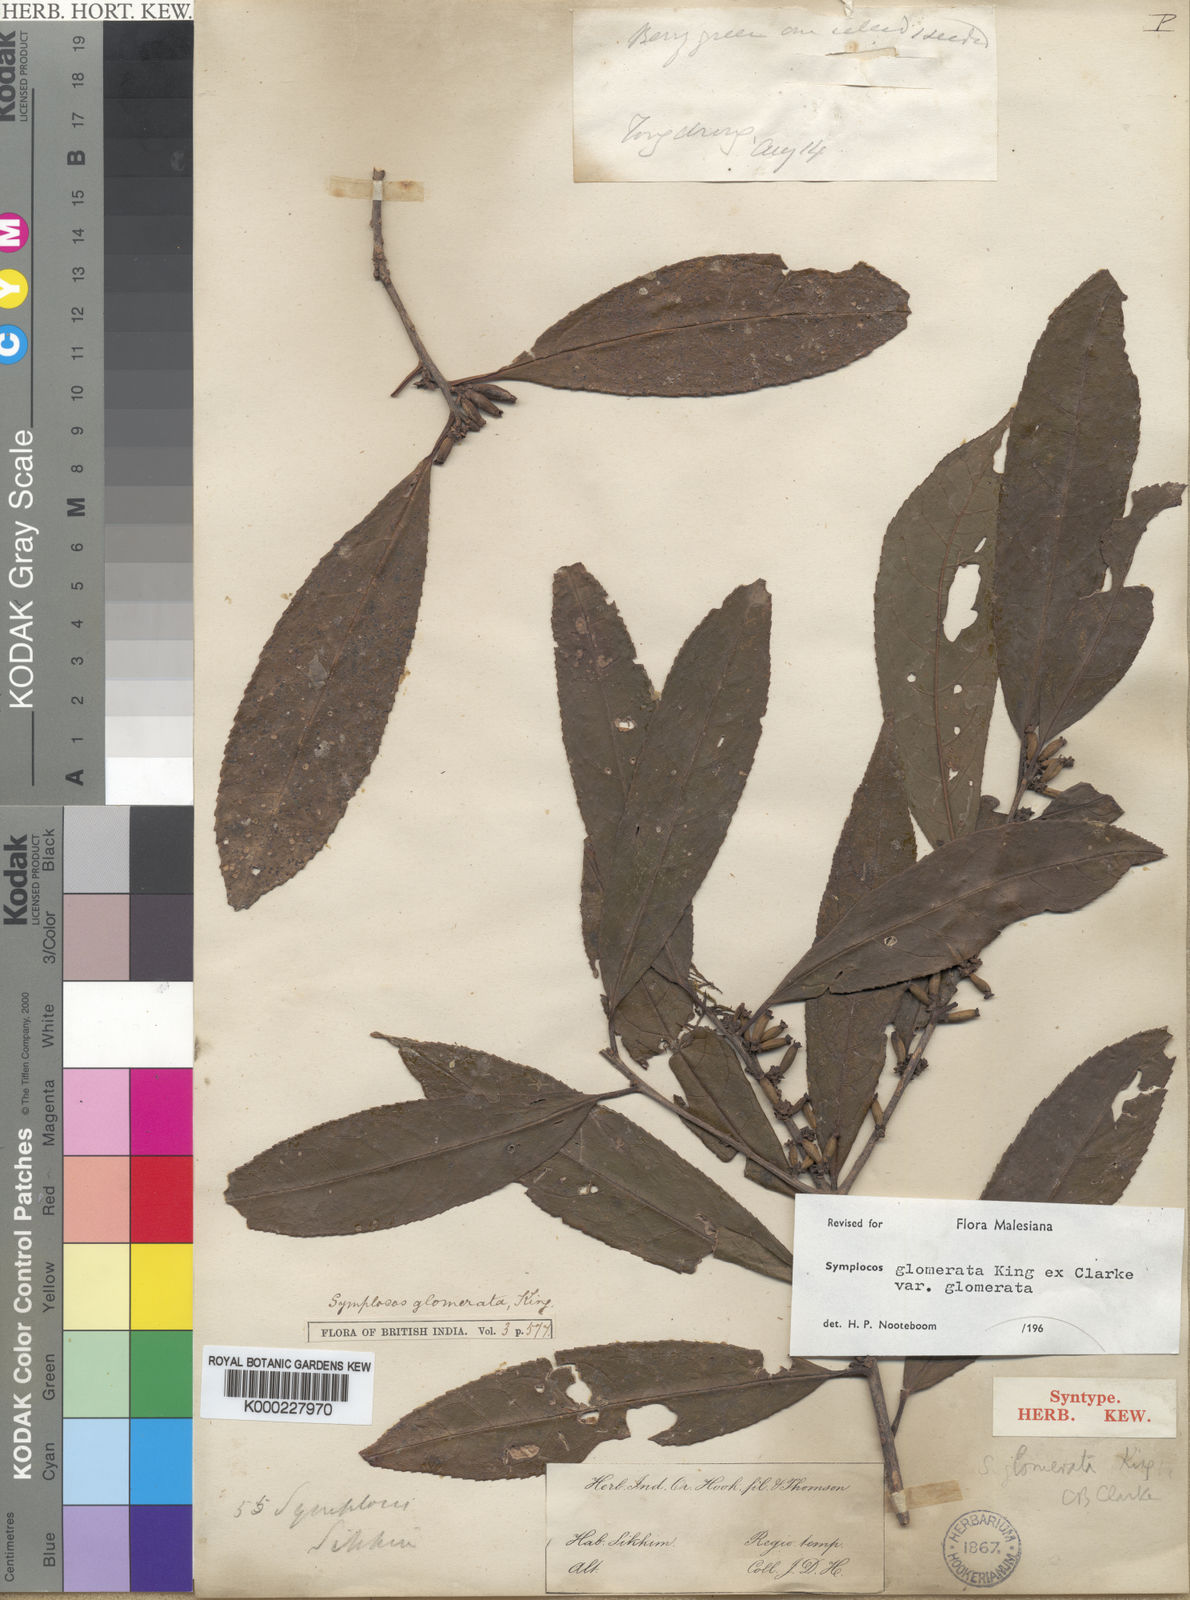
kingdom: Plantae
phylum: Tracheophyta
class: Magnoliopsida
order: Ericales
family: Symplocaceae
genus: Symplocos
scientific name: Symplocos glomerata
